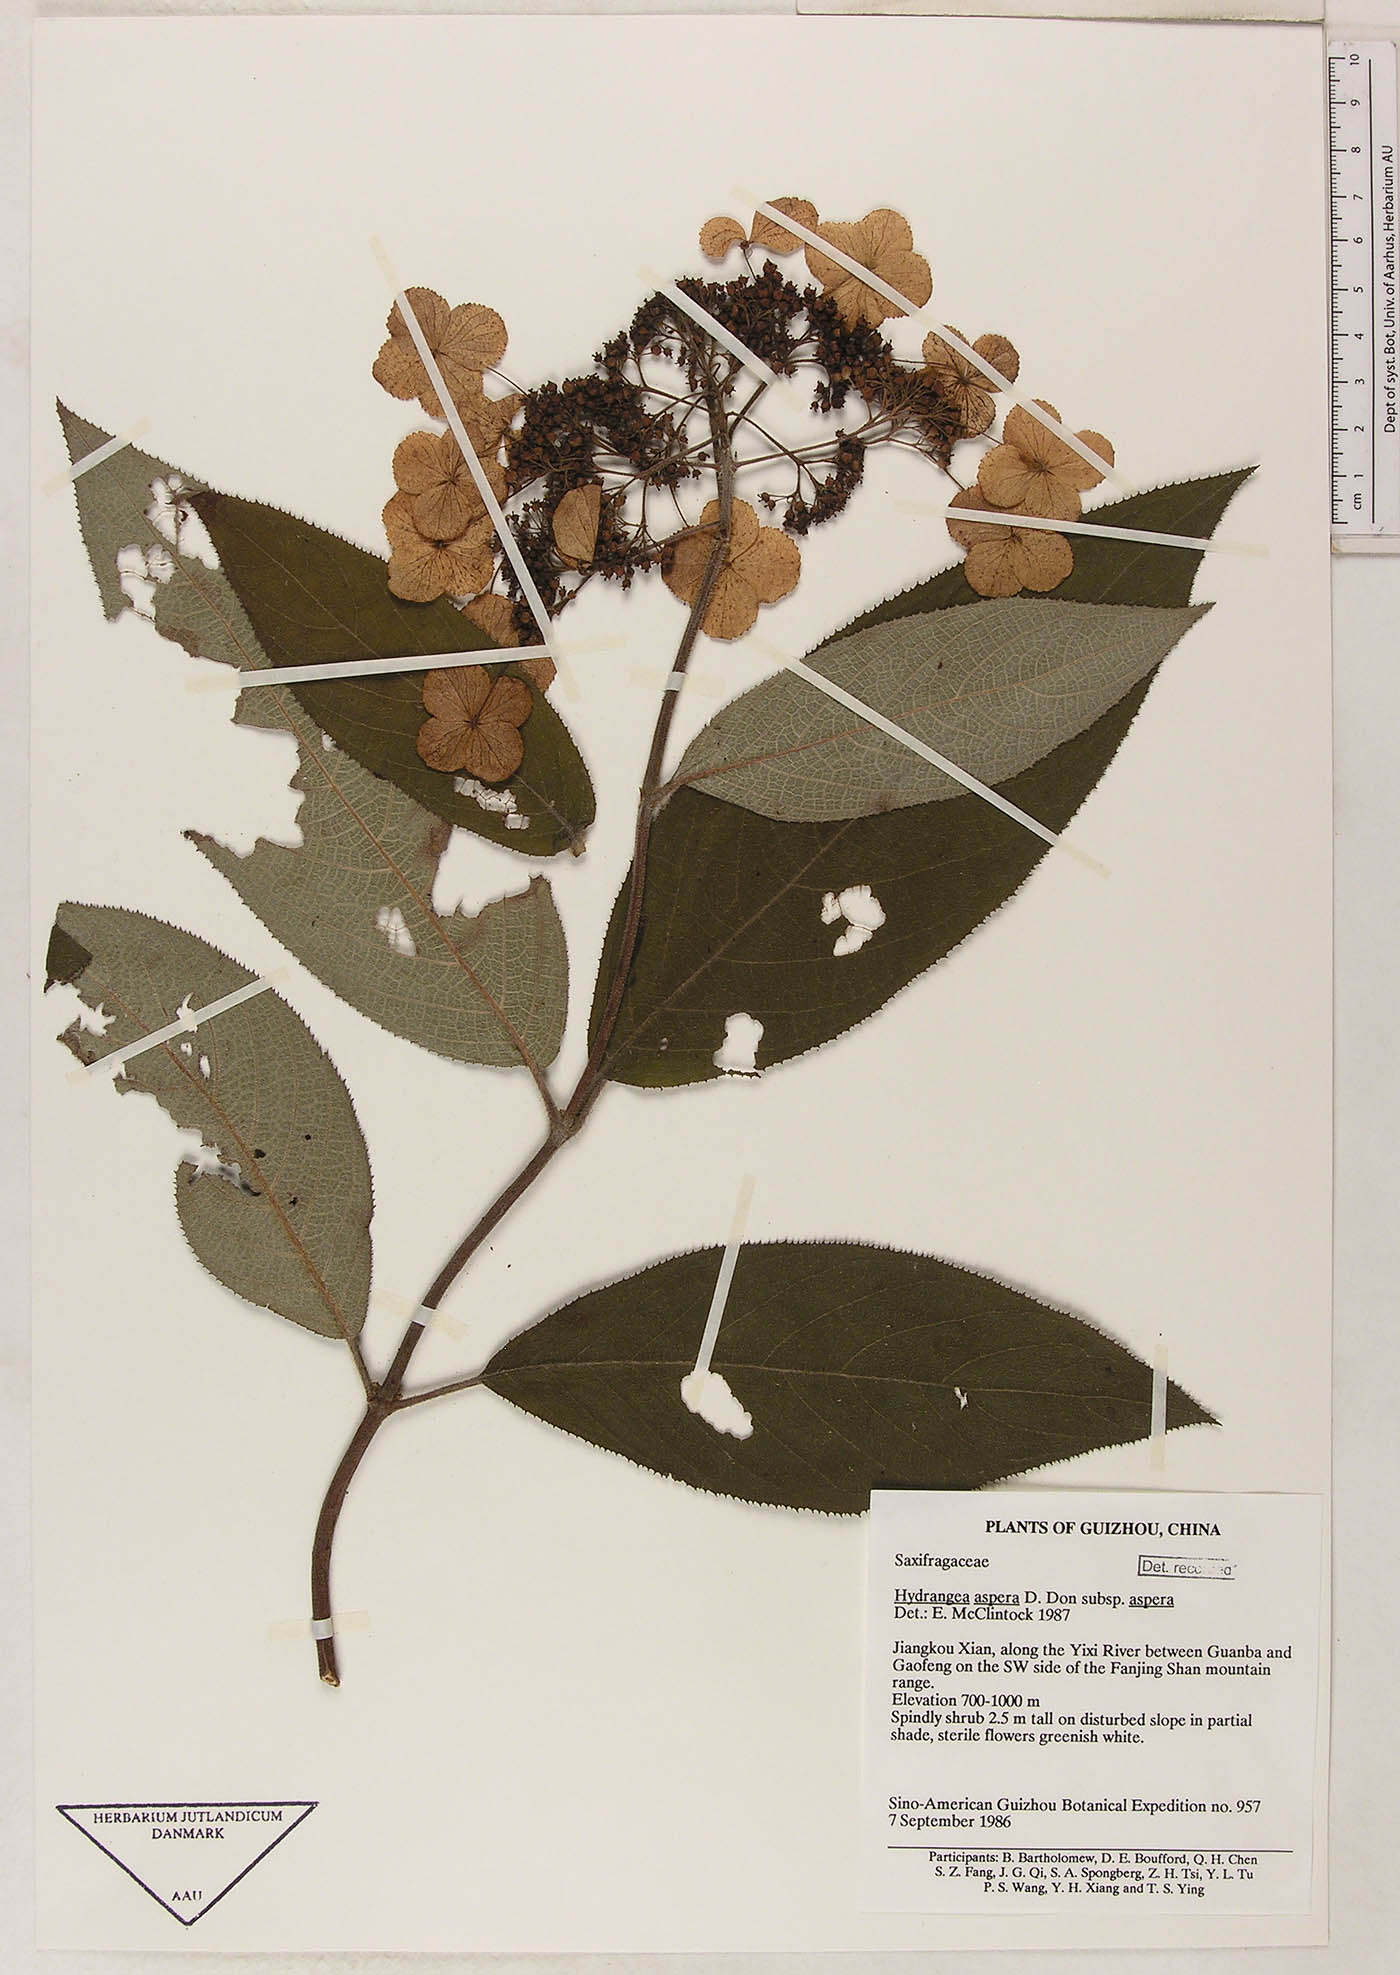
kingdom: Plantae
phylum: Tracheophyta
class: Magnoliopsida
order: Cornales
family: Hydrangeaceae
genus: Hydrangea
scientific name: Hydrangea aspera
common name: Rough-leaf hydrangea
